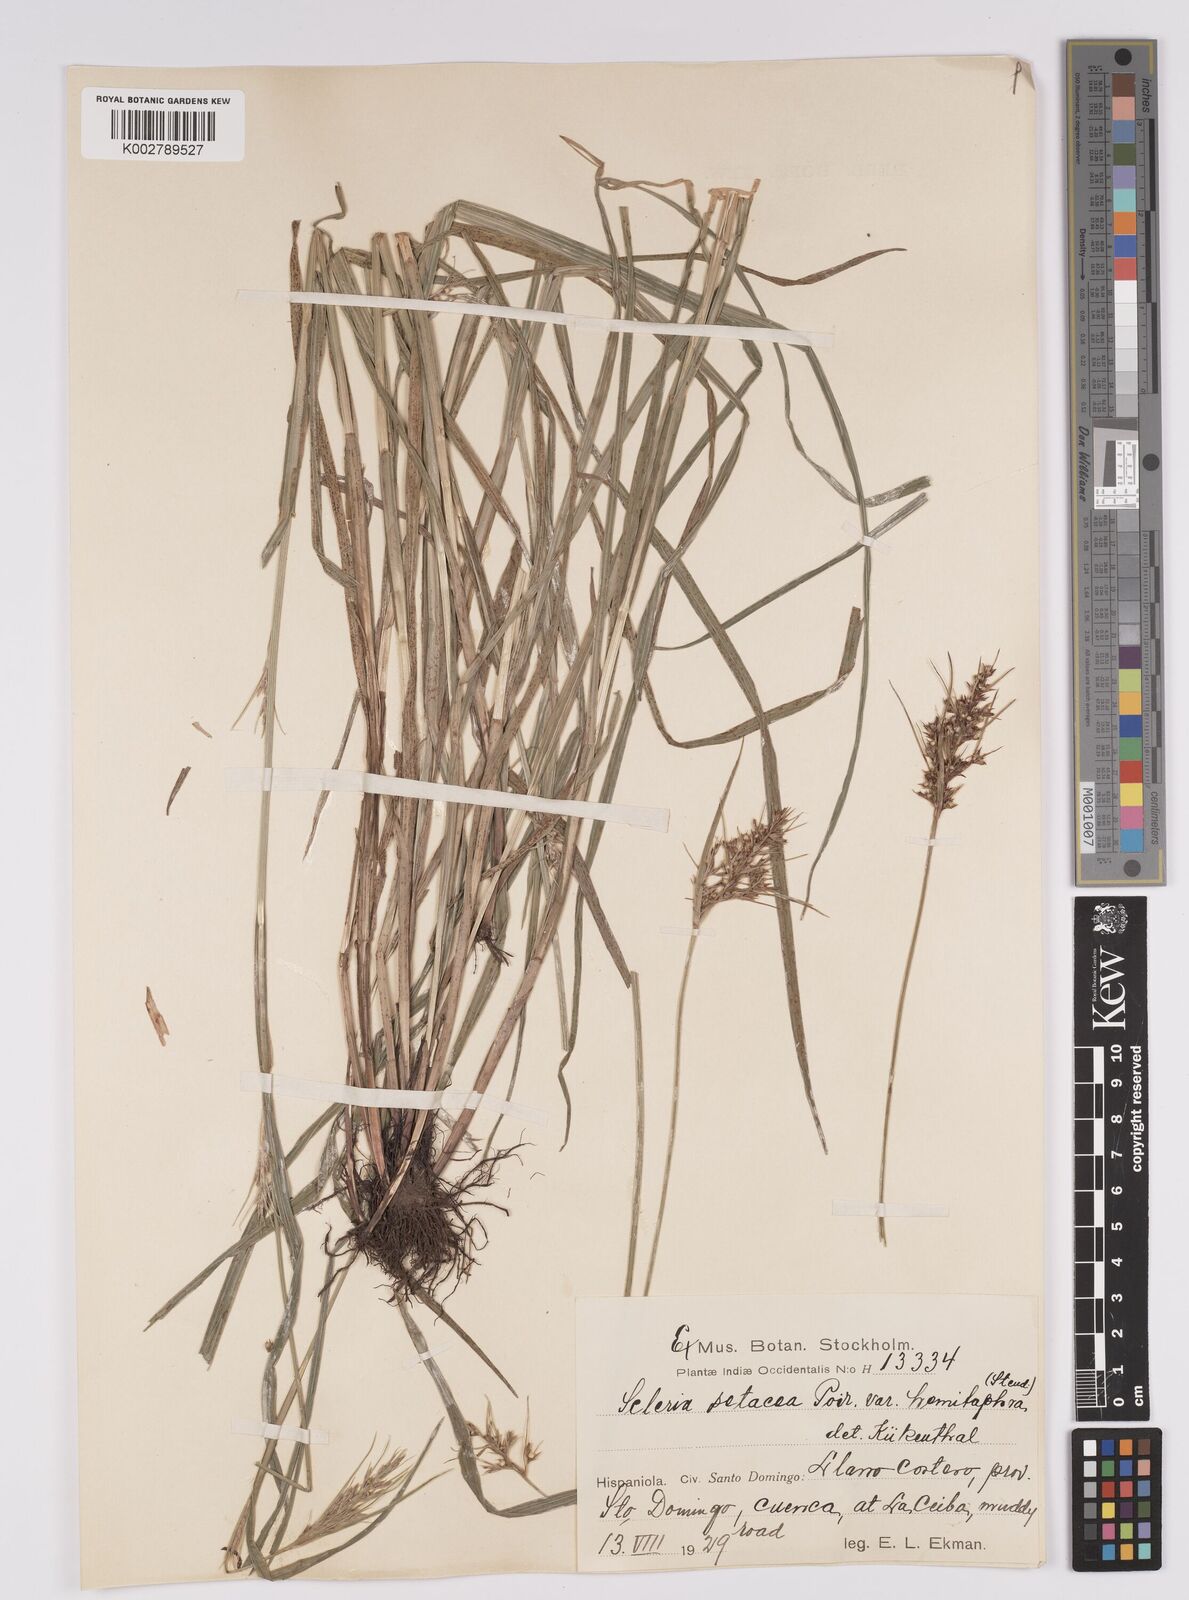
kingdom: Plantae
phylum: Tracheophyta
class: Liliopsida
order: Poales
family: Cyperaceae
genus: Rhynchospora
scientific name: Rhynchospora tenerrima
